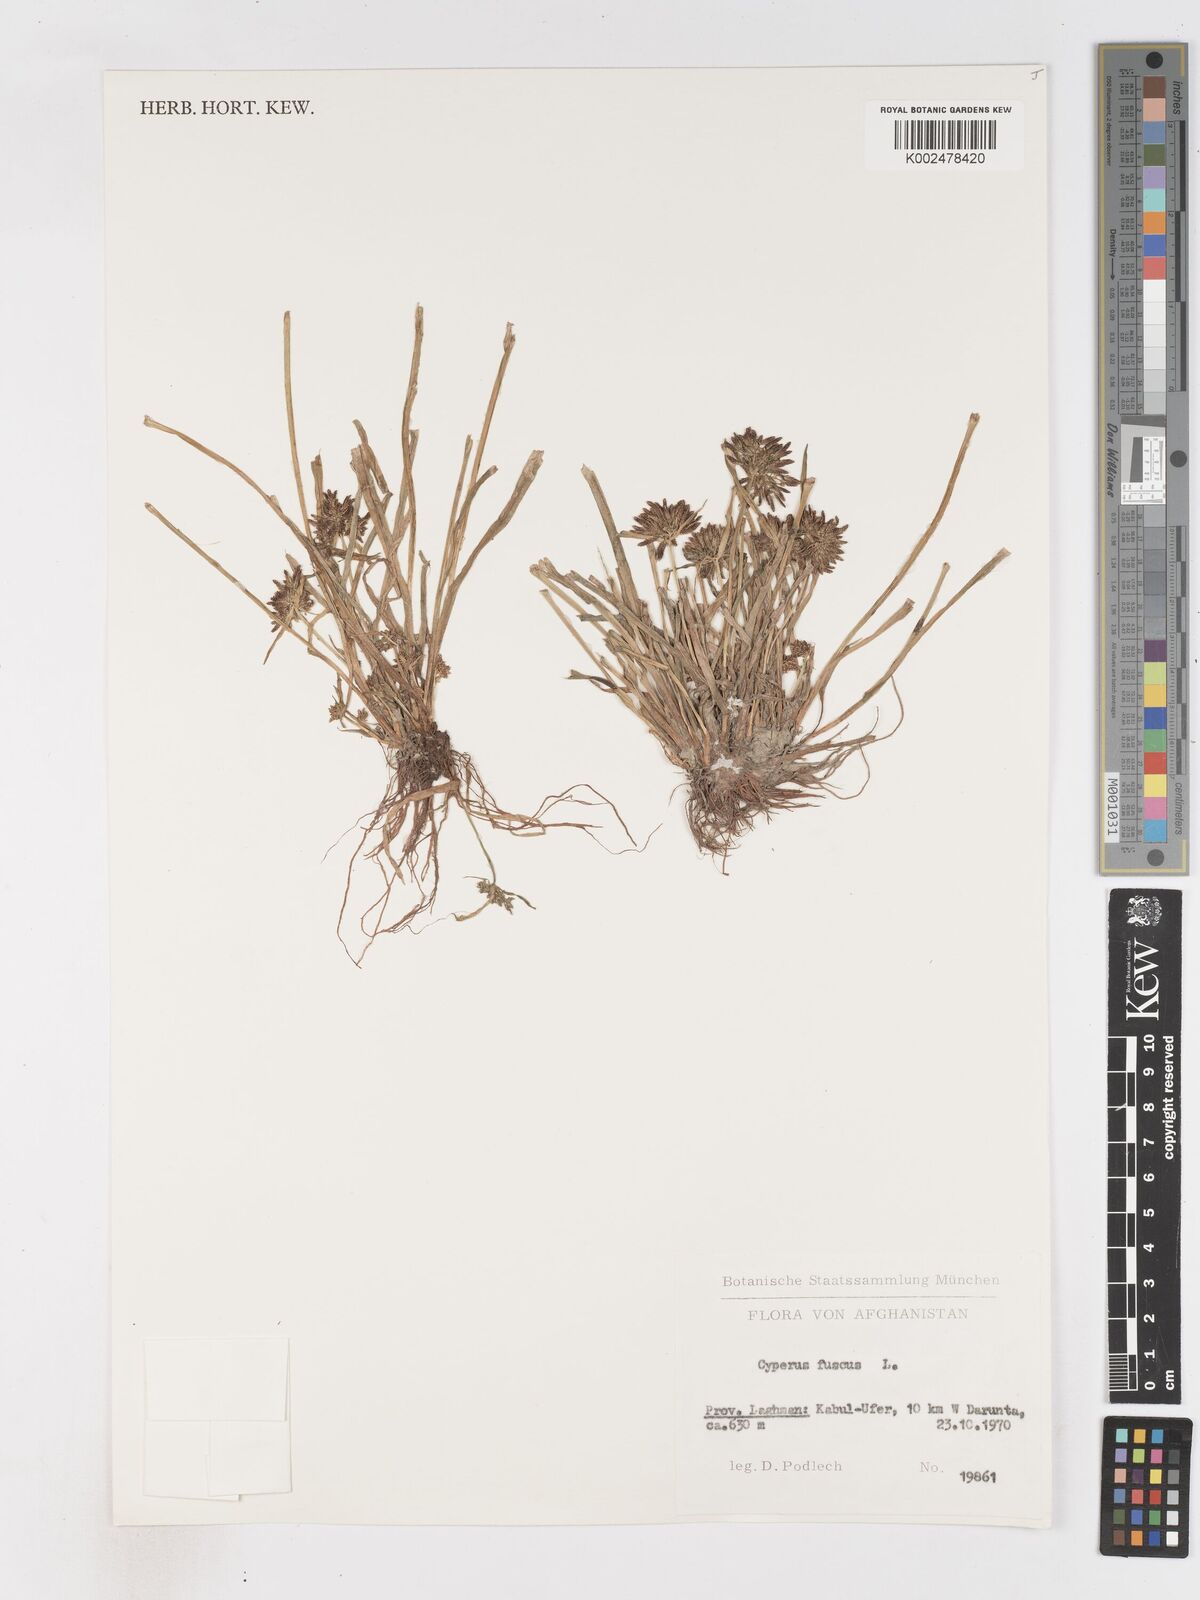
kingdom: Plantae
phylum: Tracheophyta
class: Liliopsida
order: Poales
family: Cyperaceae
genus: Cyperus
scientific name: Cyperus fuscus
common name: Brown galingale
